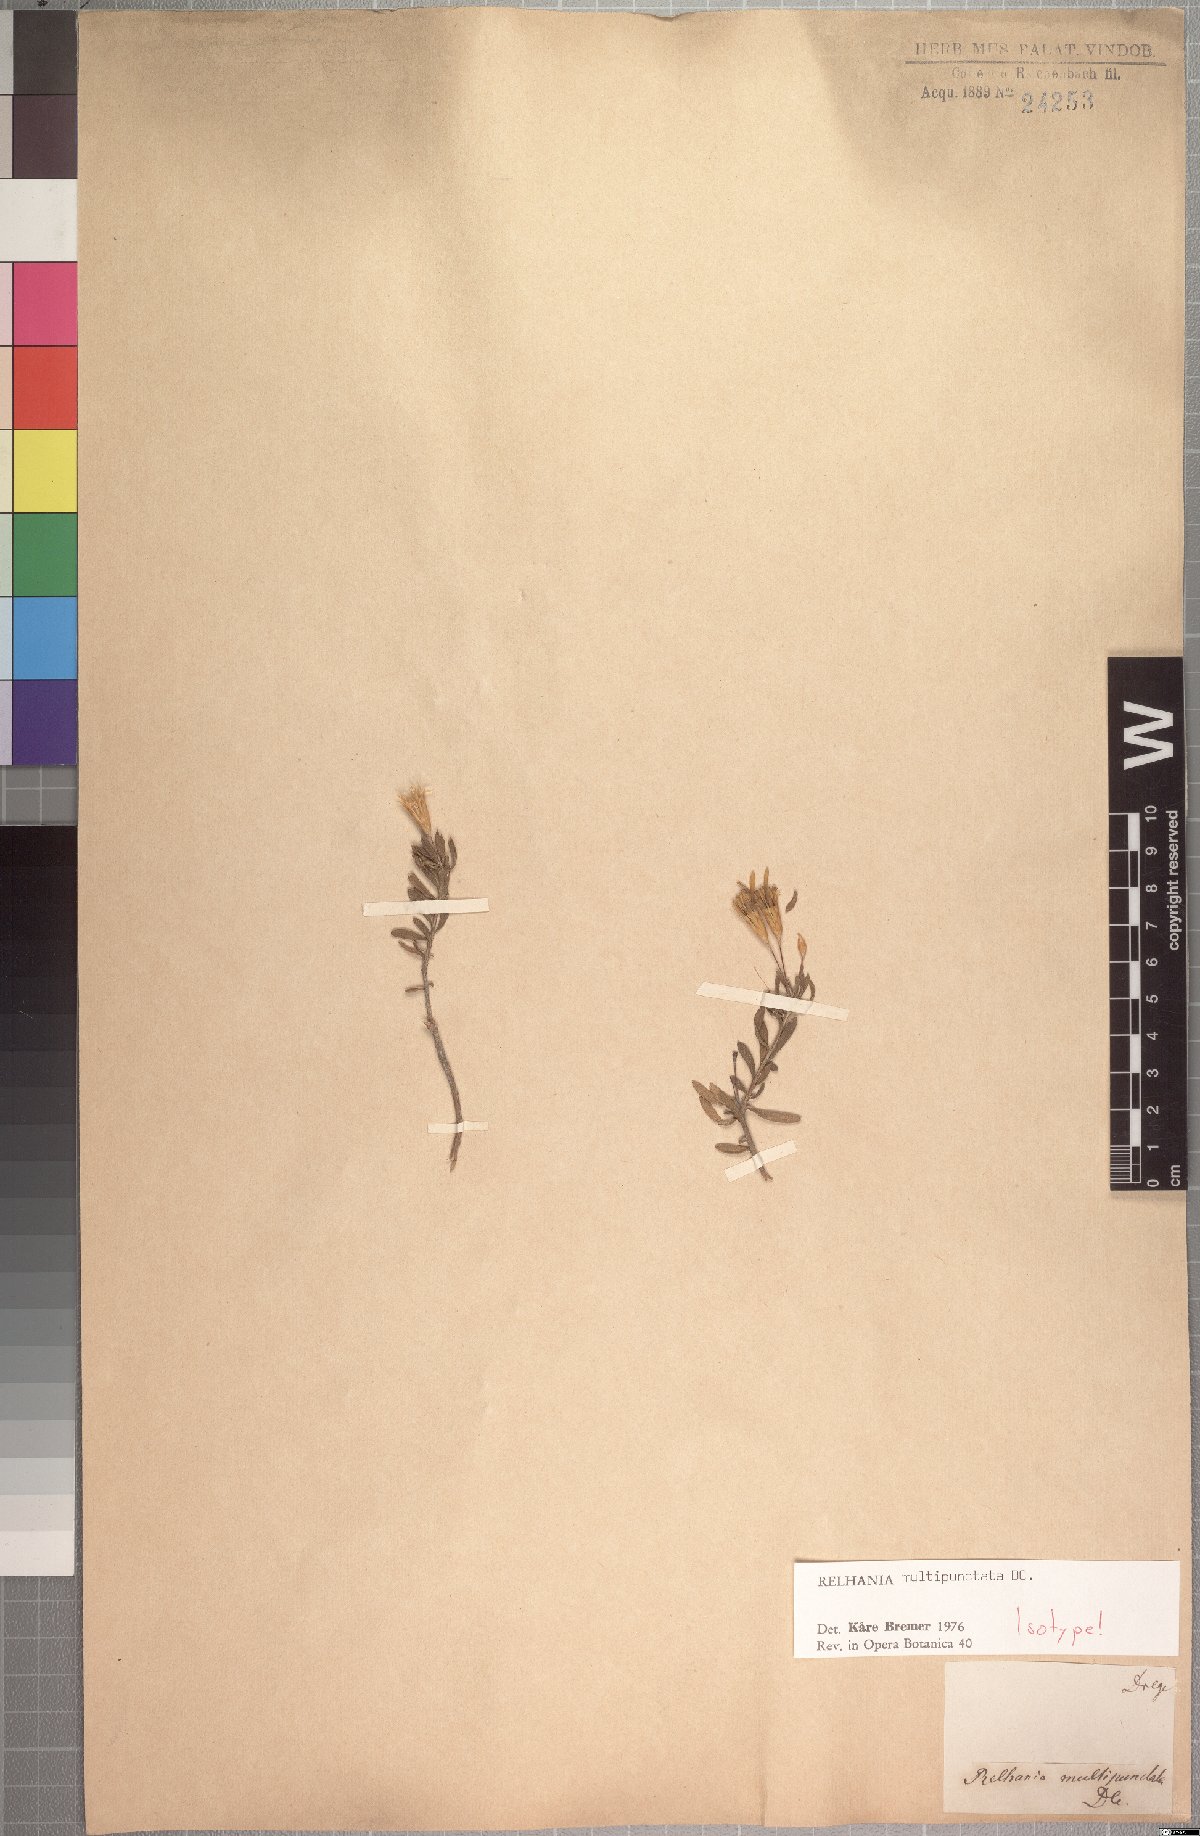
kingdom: Plantae
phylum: Tracheophyta
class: Magnoliopsida
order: Asterales
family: Asteraceae
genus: Oedera
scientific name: Oedera multipunctata
